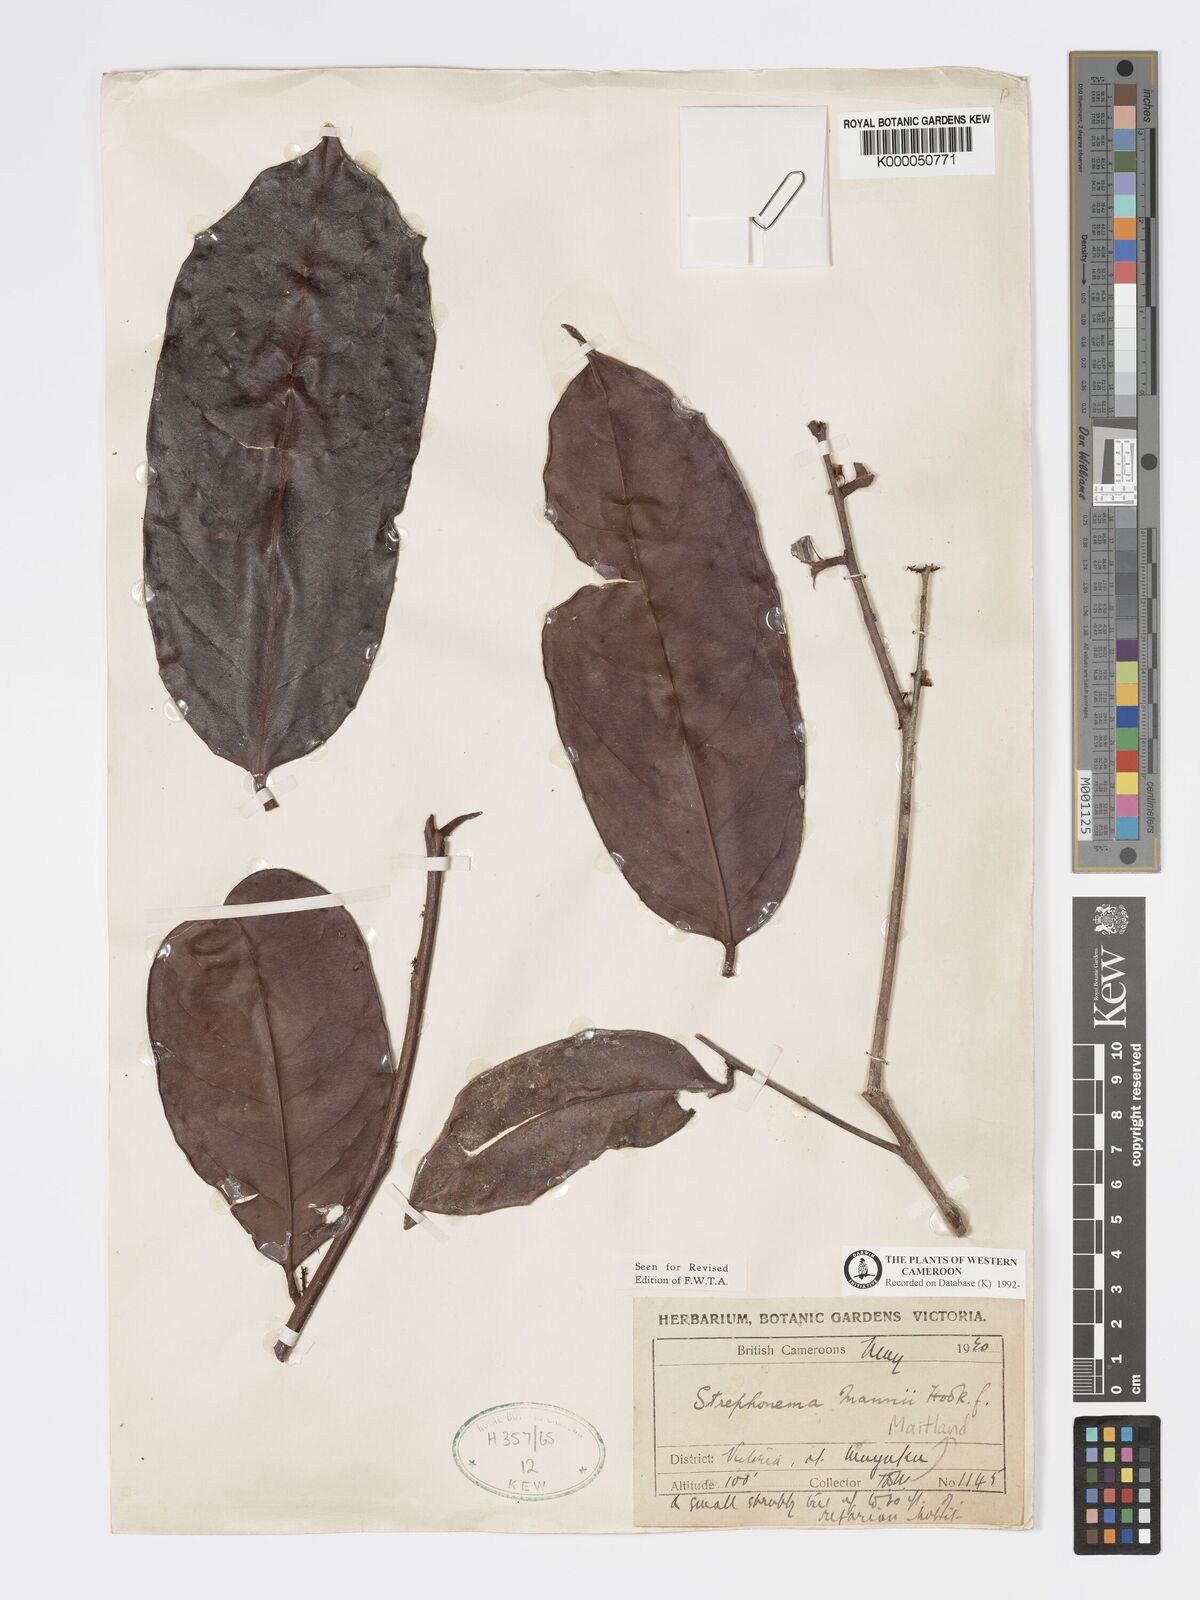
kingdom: Plantae
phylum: Tracheophyta
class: Magnoliopsida
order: Myrtales
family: Combretaceae
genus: Strephonema
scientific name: Strephonema mannii
